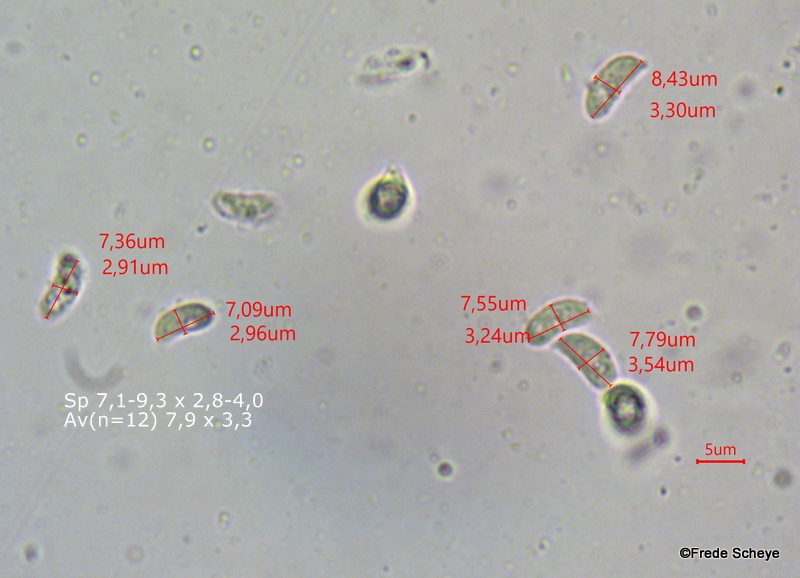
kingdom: Fungi
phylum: Basidiomycota
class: Agaricomycetes
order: Agaricales
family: Typhulaceae
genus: Typhula
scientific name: Typhula spathulata
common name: aske-trådkølle
